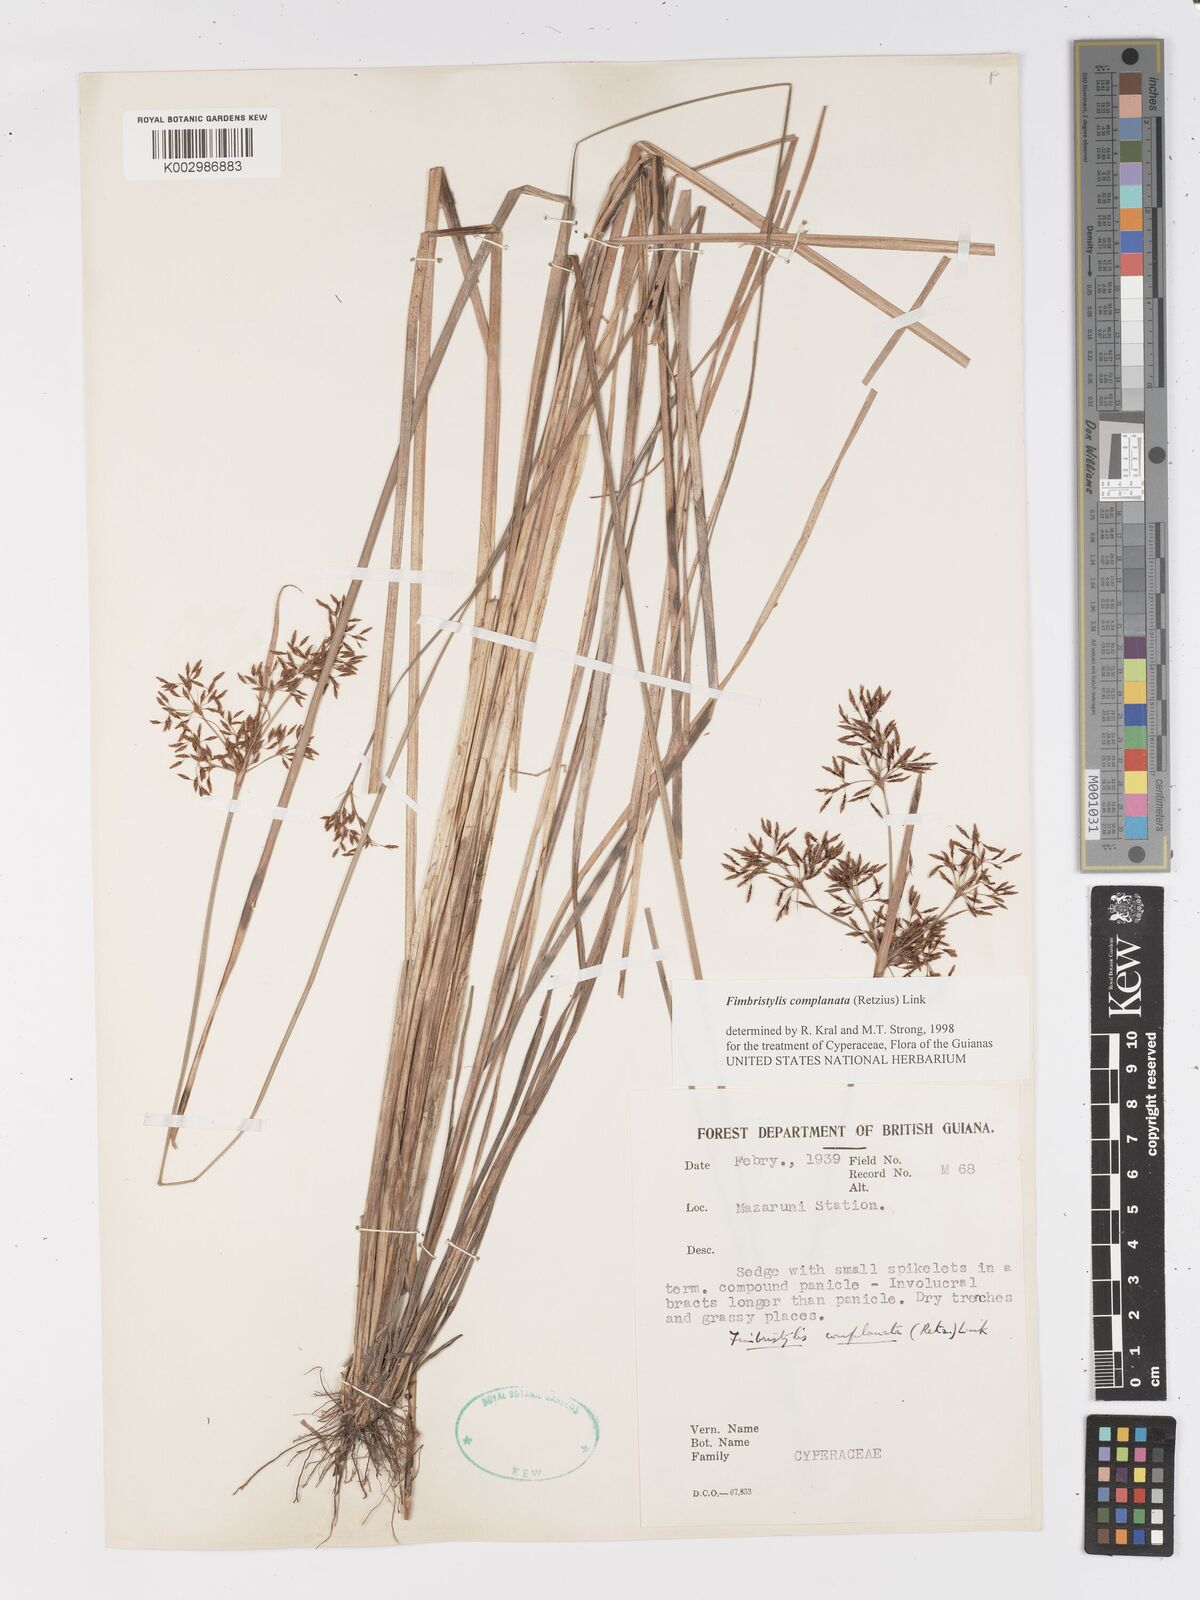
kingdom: Plantae
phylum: Tracheophyta
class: Liliopsida
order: Poales
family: Cyperaceae
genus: Fimbristylis
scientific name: Fimbristylis complanata
